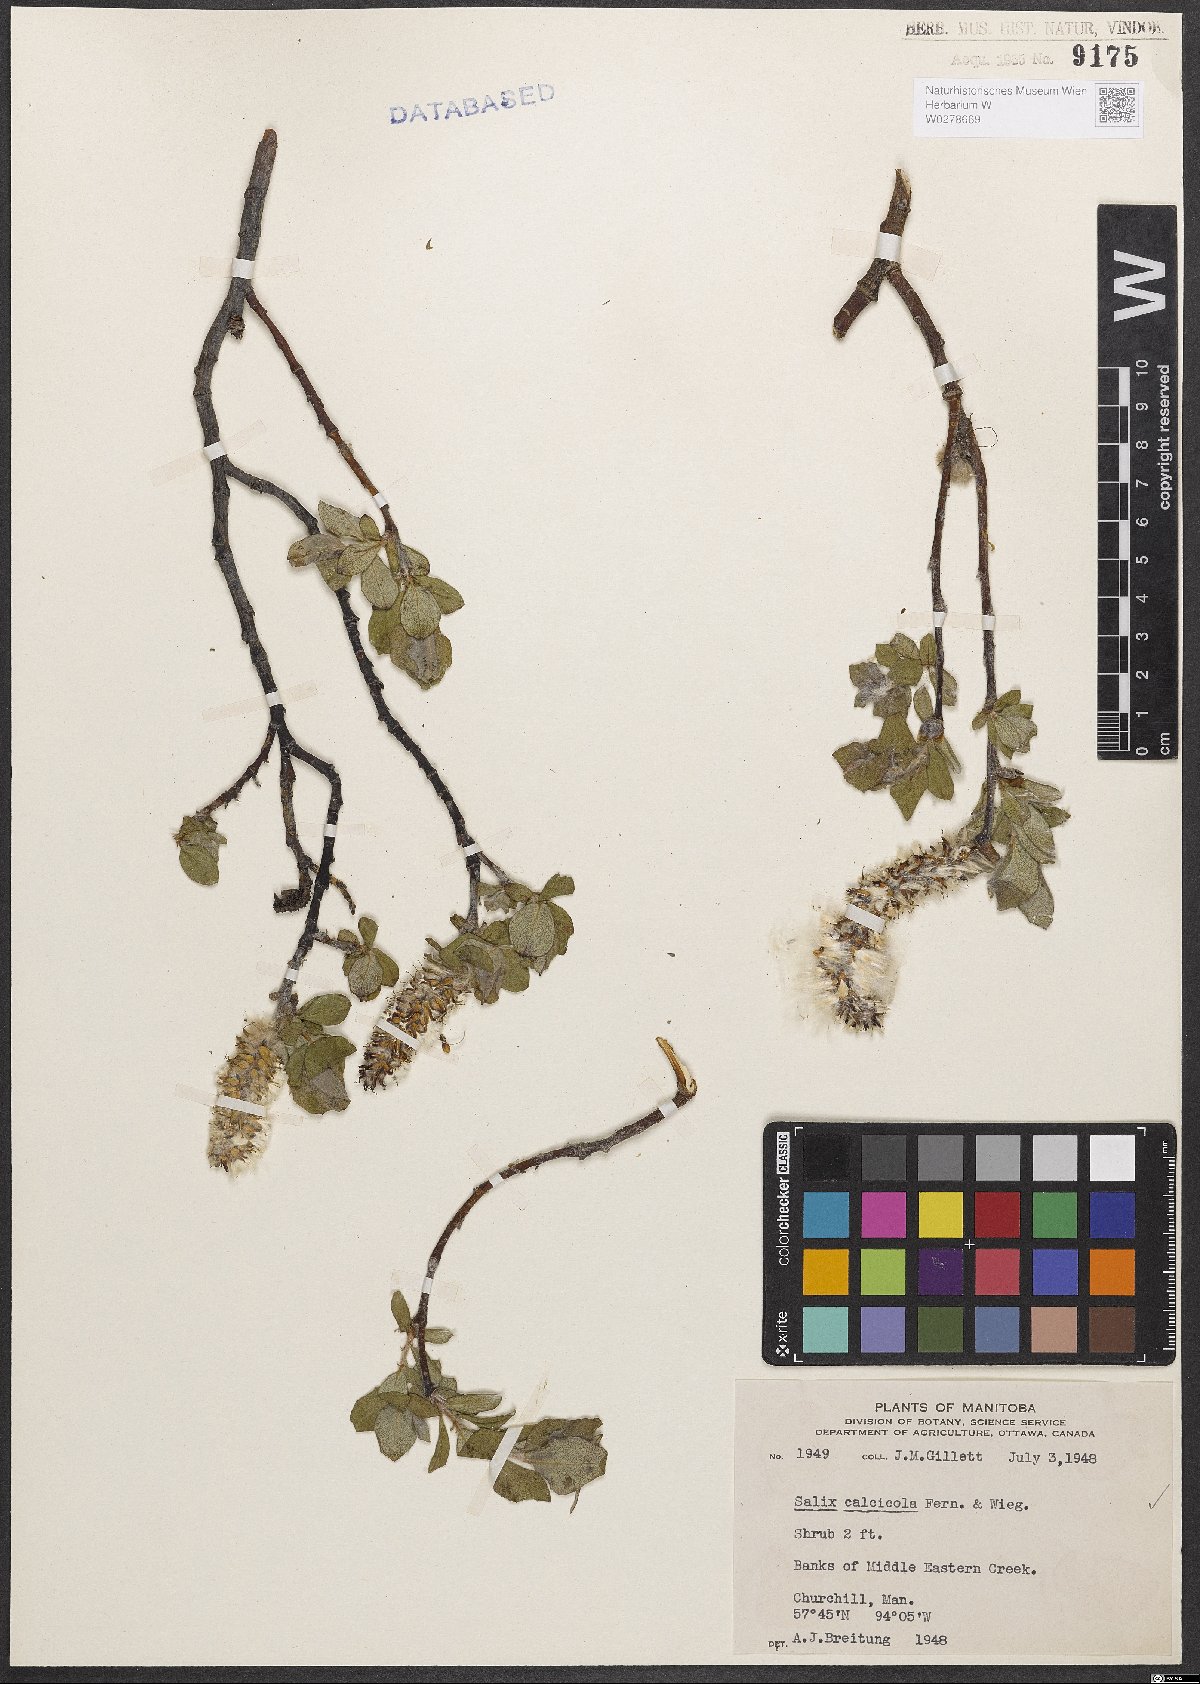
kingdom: Plantae
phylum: Tracheophyta
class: Magnoliopsida
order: Malpighiales
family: Salicaceae
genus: Salix
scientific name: Salix calcicola
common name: Calcareous willow
